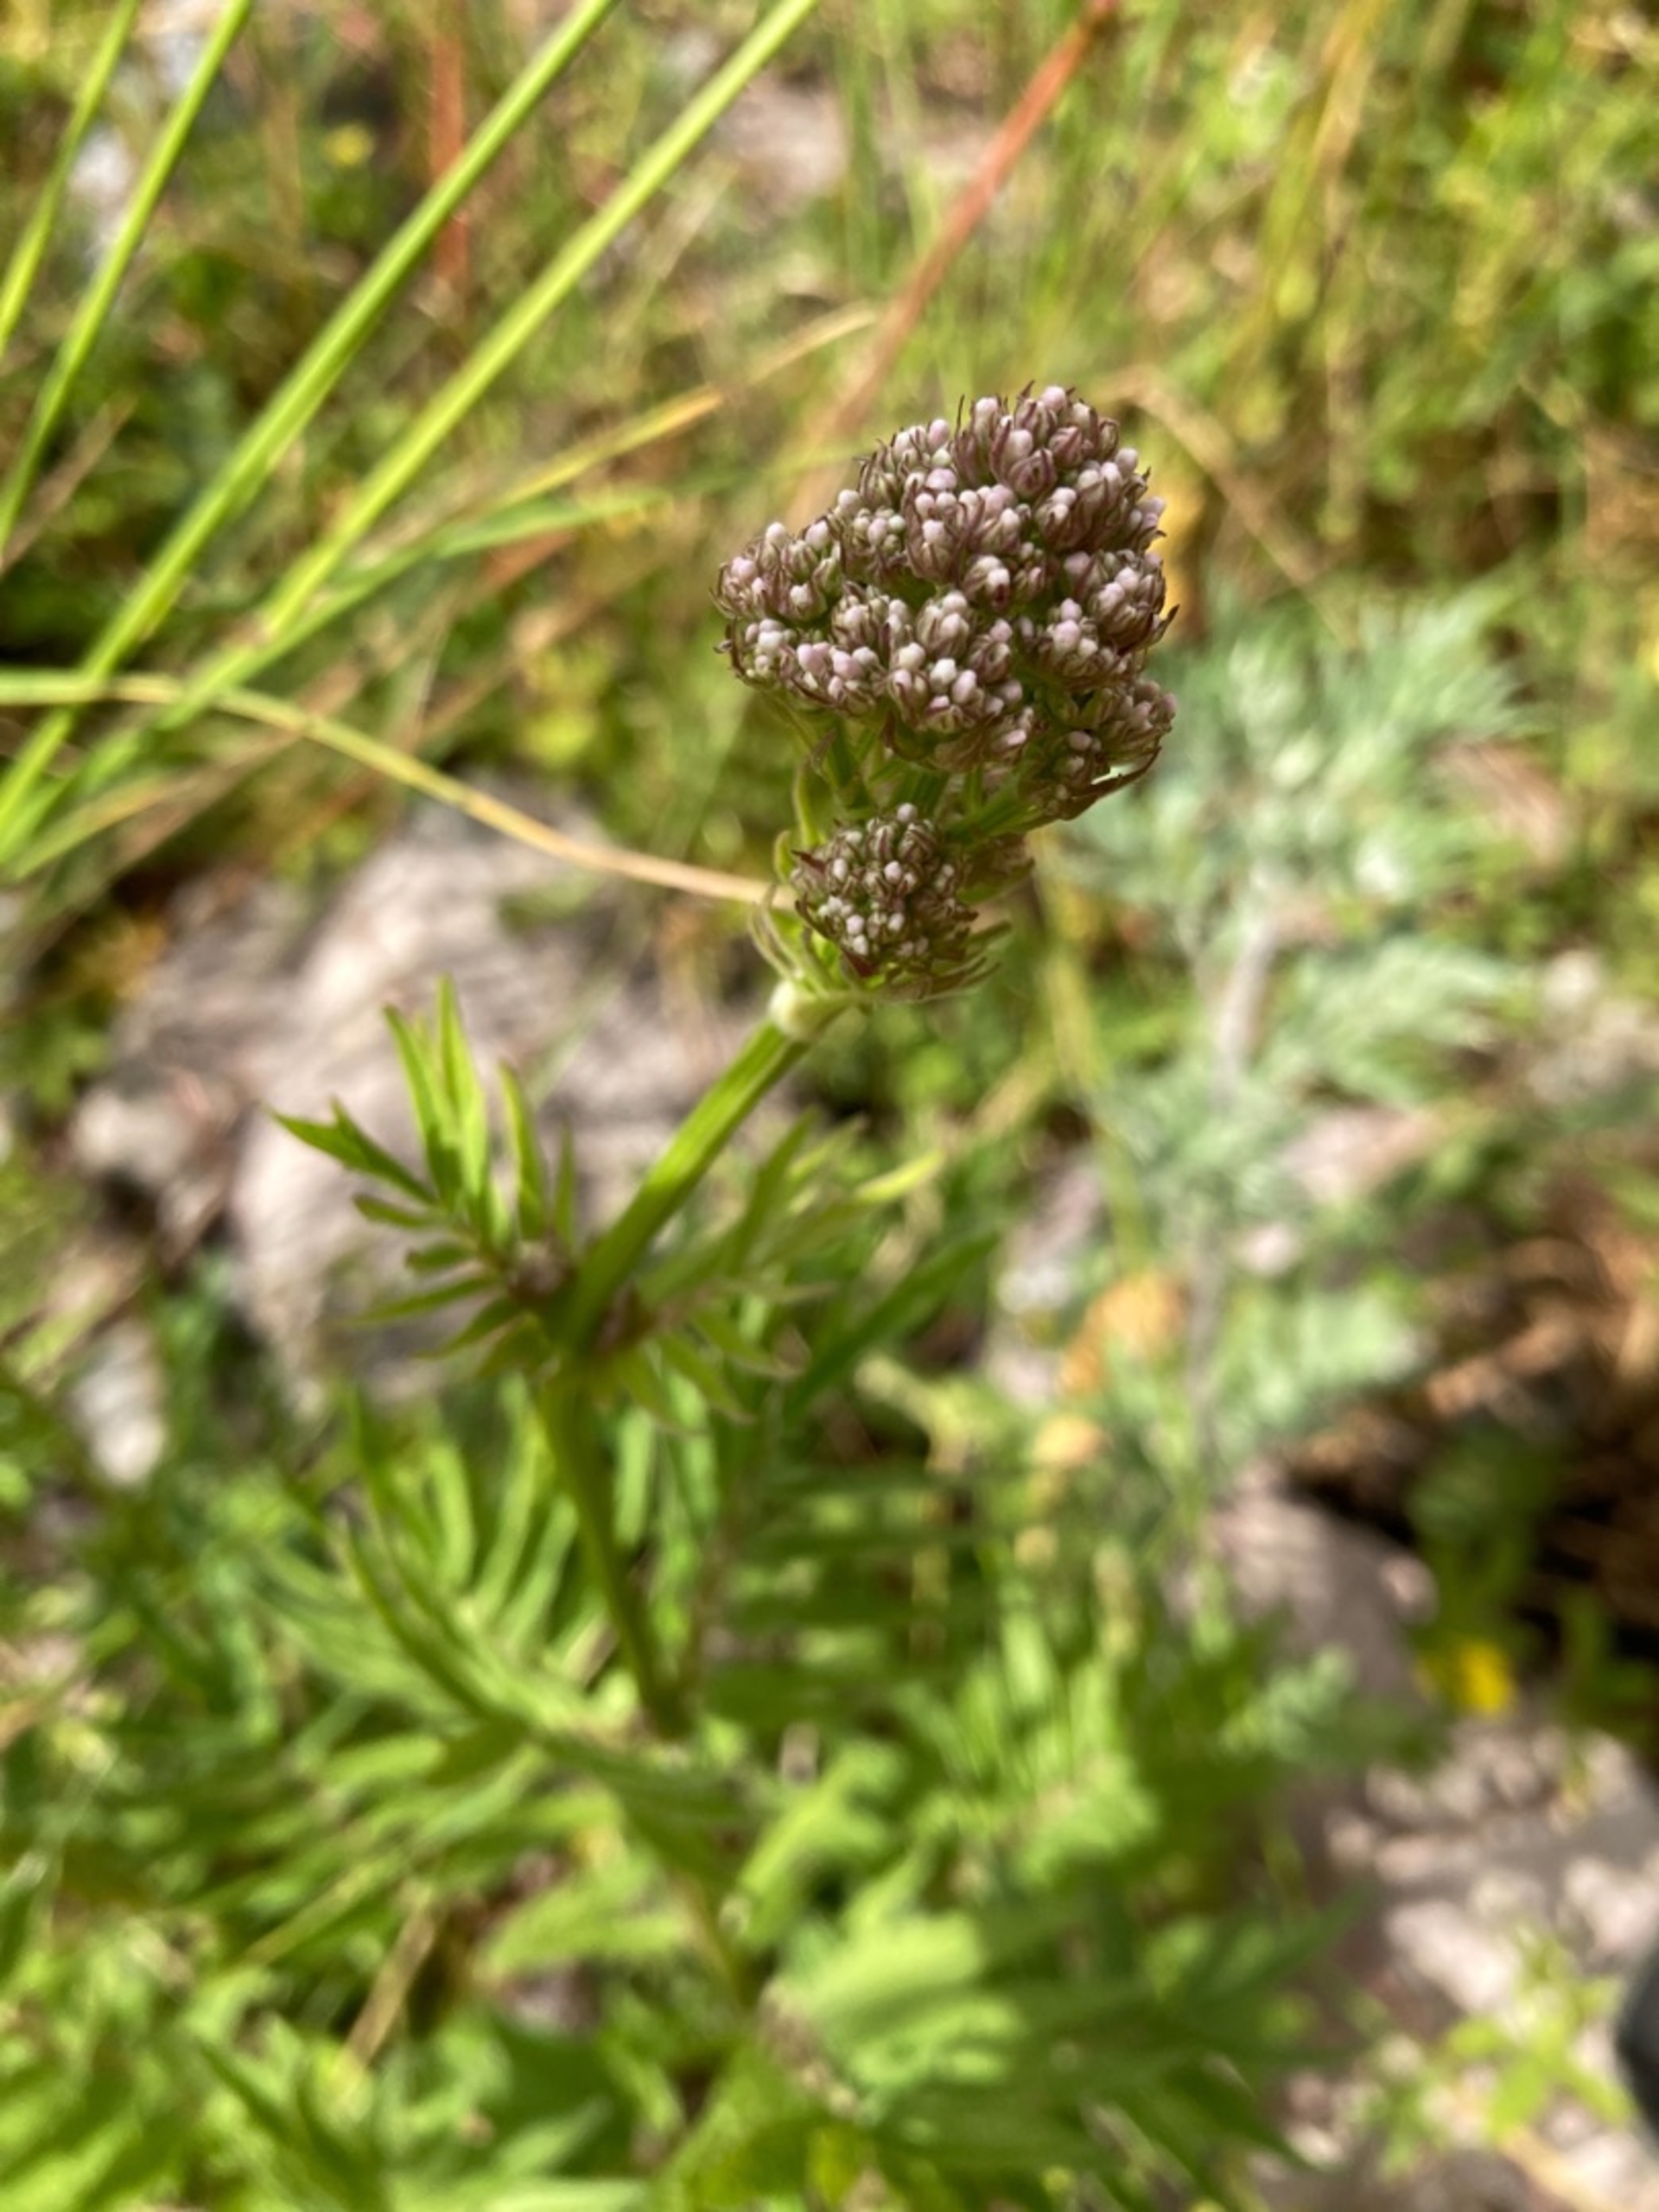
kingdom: Plantae
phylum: Tracheophyta
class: Magnoliopsida
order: Dipsacales
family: Caprifoliaceae
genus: Valeriana
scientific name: Valeriana officinalis
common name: Læge-baldrian
